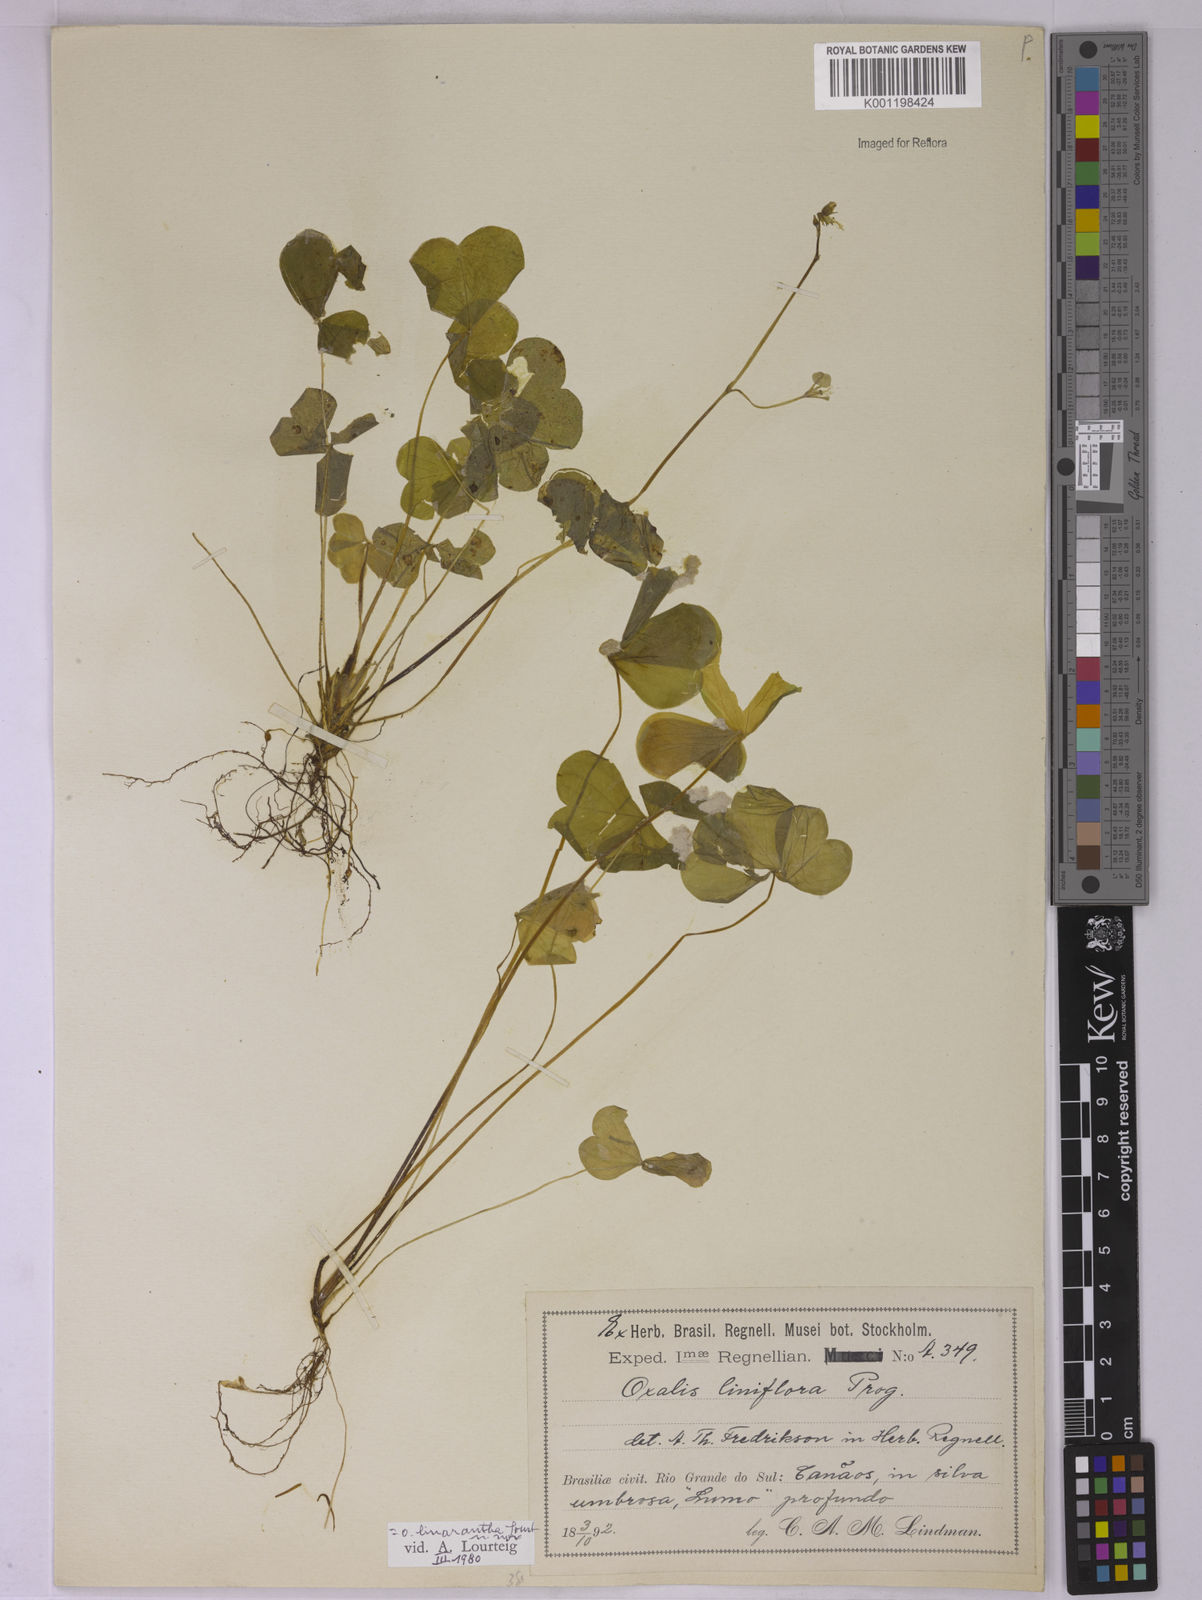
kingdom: Plantae
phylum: Tracheophyta
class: Magnoliopsida
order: Oxalidales
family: Oxalidaceae
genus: Oxalis
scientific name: Oxalis linarantha
